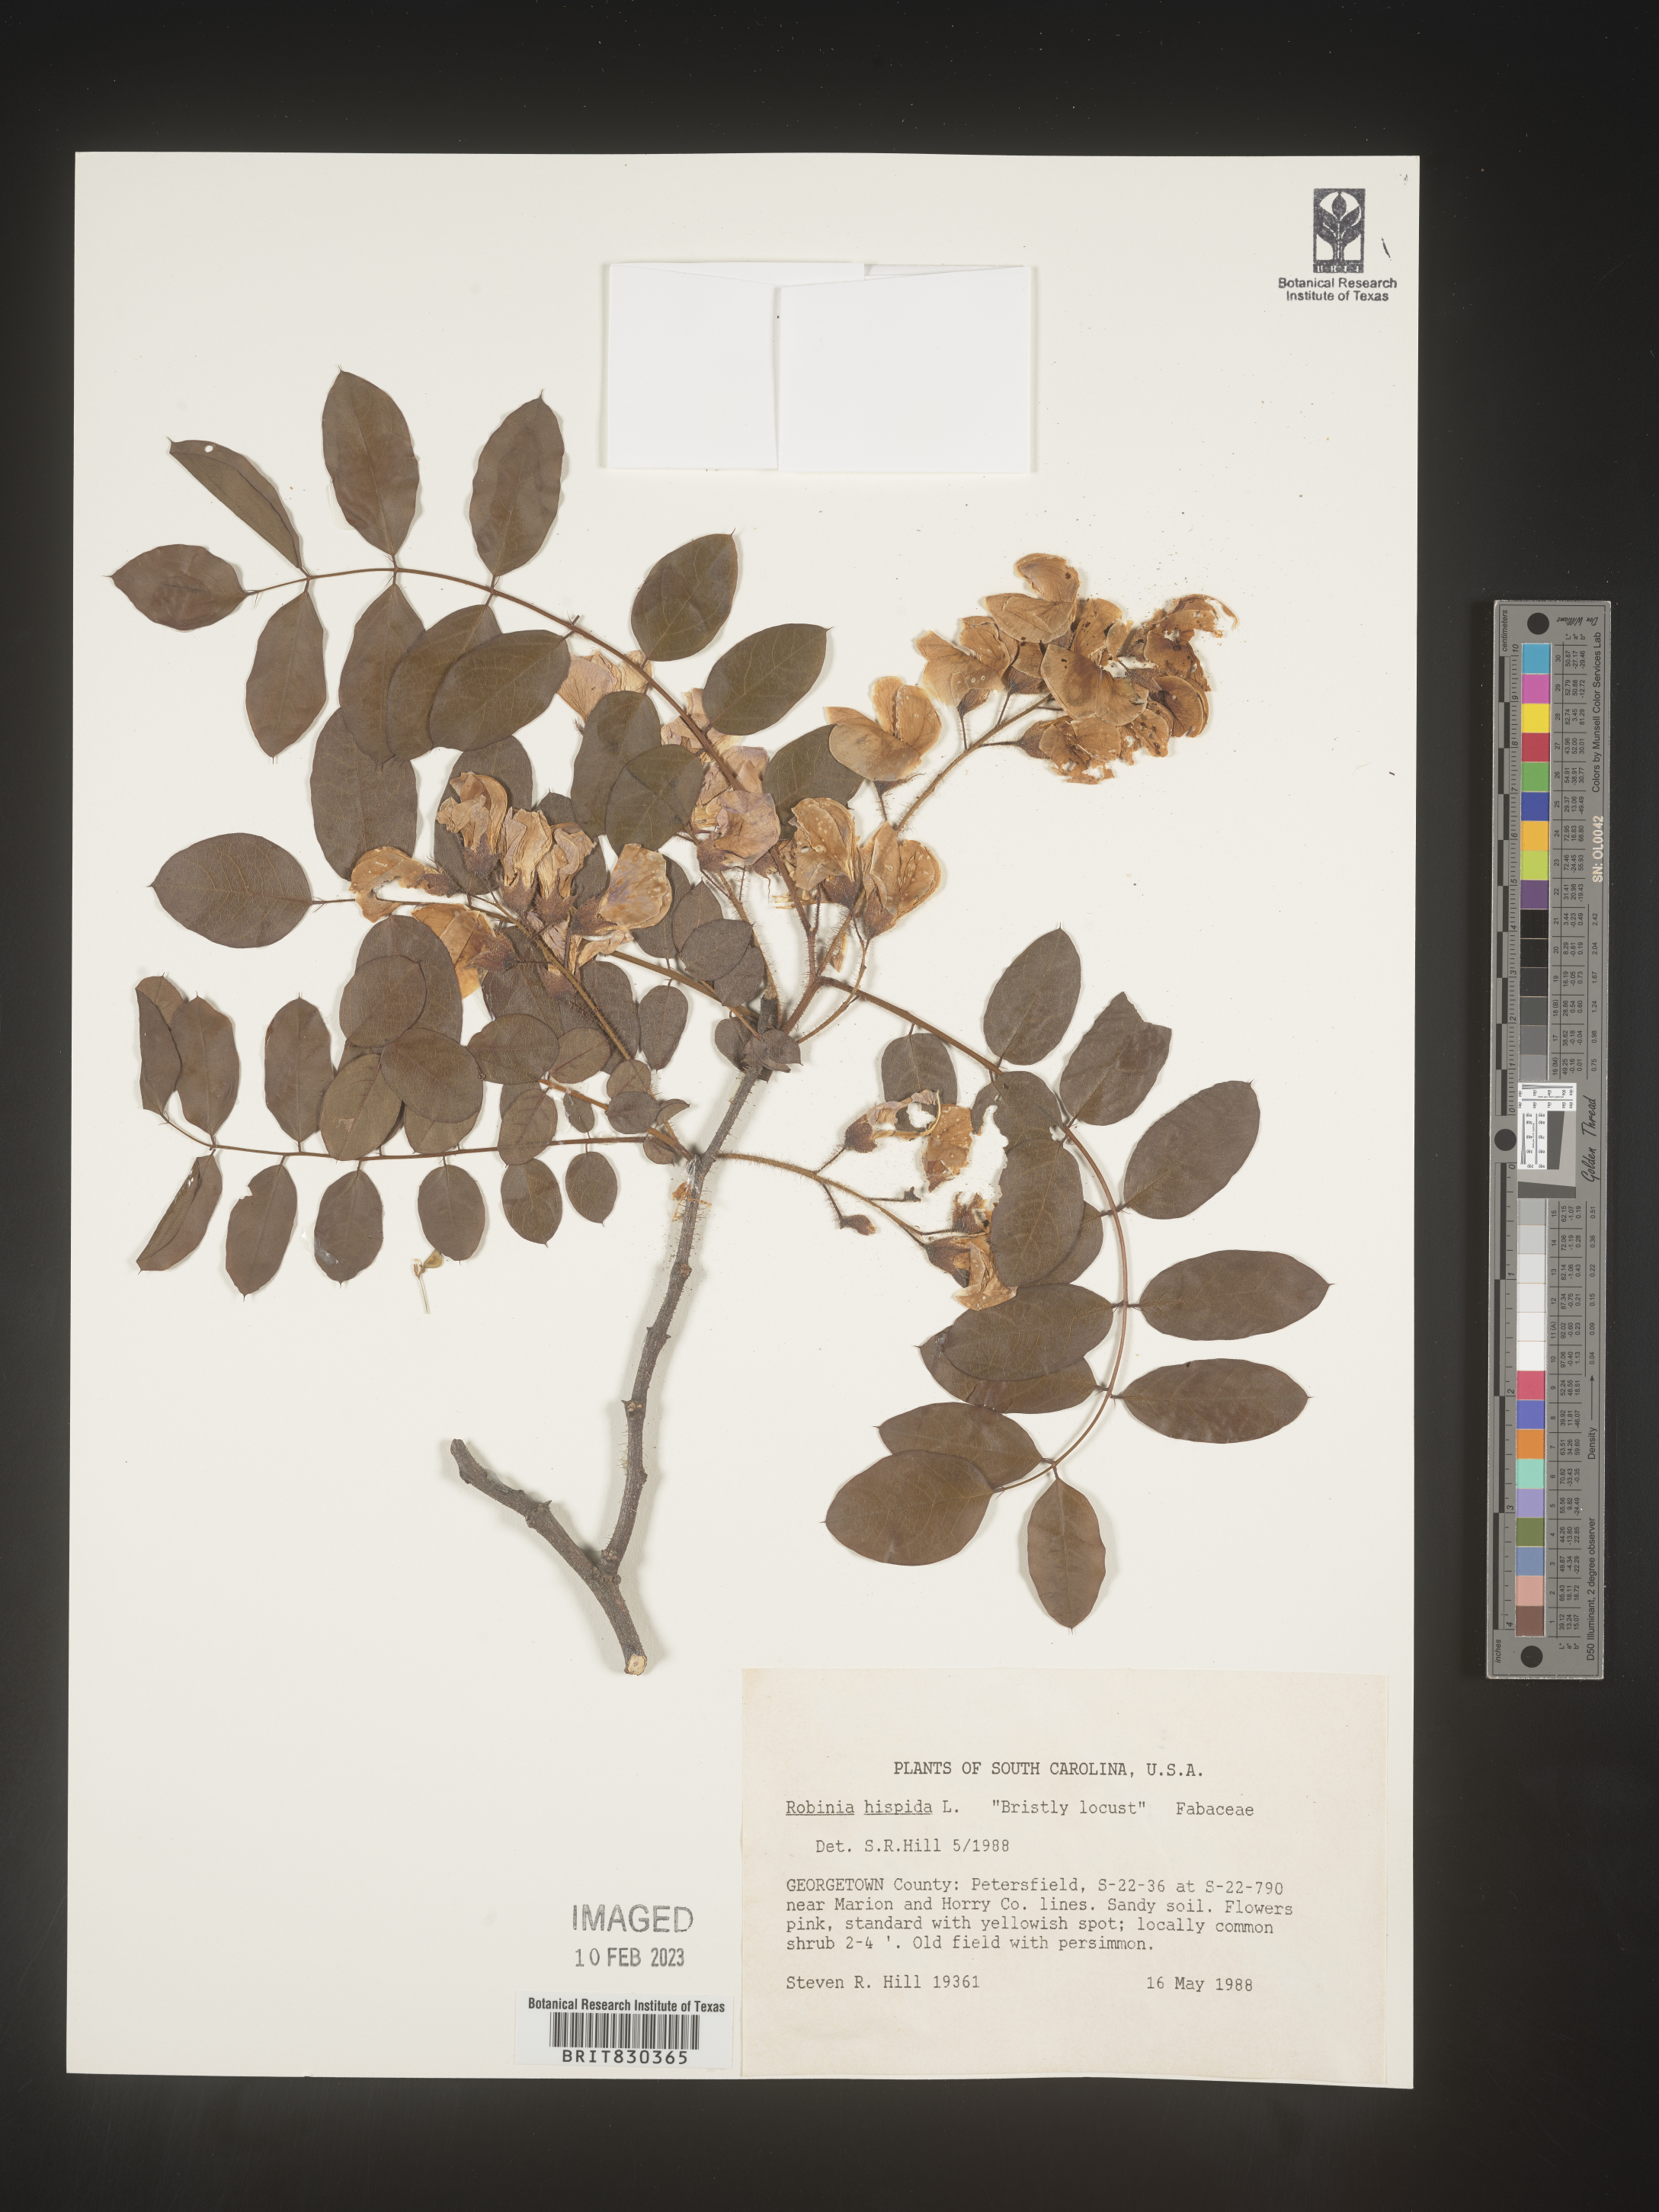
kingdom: Plantae
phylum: Tracheophyta
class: Magnoliopsida
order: Fabales
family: Fabaceae
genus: Robinia
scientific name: Robinia hispida
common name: Bristly locust
